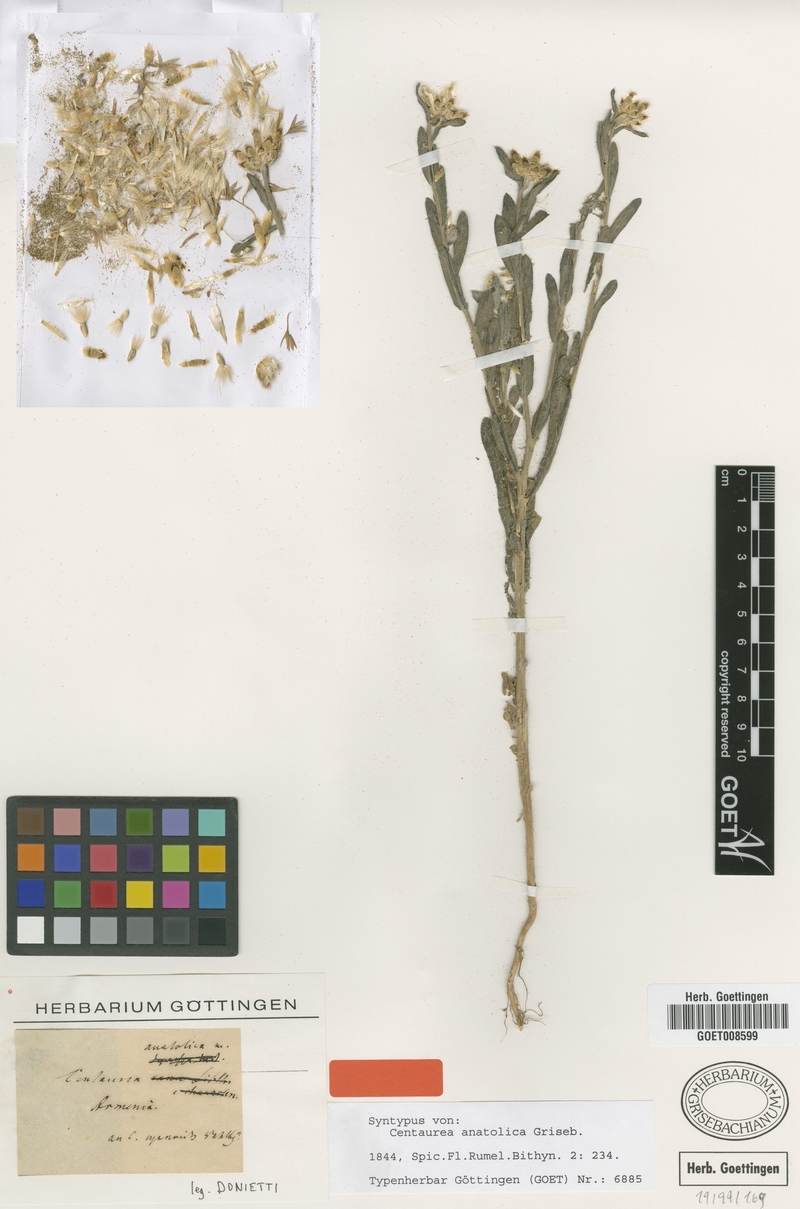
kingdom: Plantae
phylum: Tracheophyta
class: Magnoliopsida
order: Asterales
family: Asteraceae
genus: Centaurea
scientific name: Centaurea depressa
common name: Iranian knapweed
